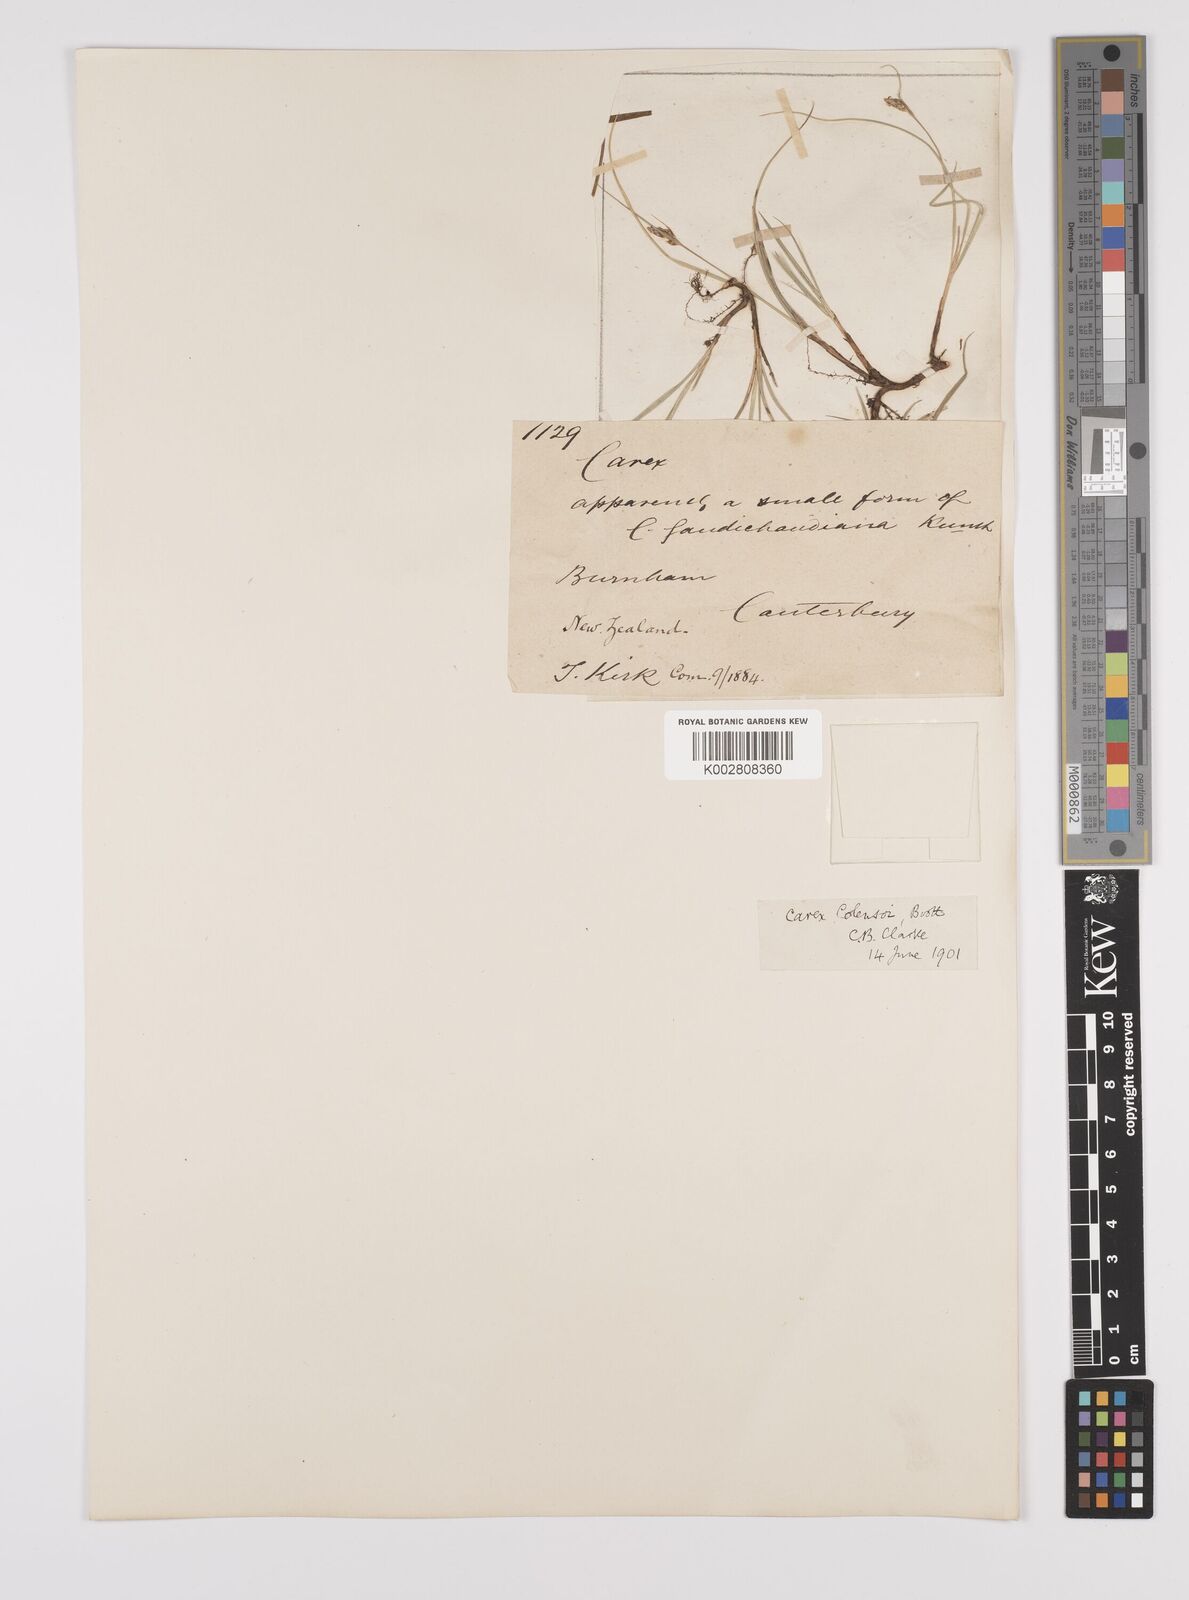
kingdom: Plantae
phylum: Tracheophyta
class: Liliopsida
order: Poales
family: Cyperaceae
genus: Carex
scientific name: Carex colensoi
